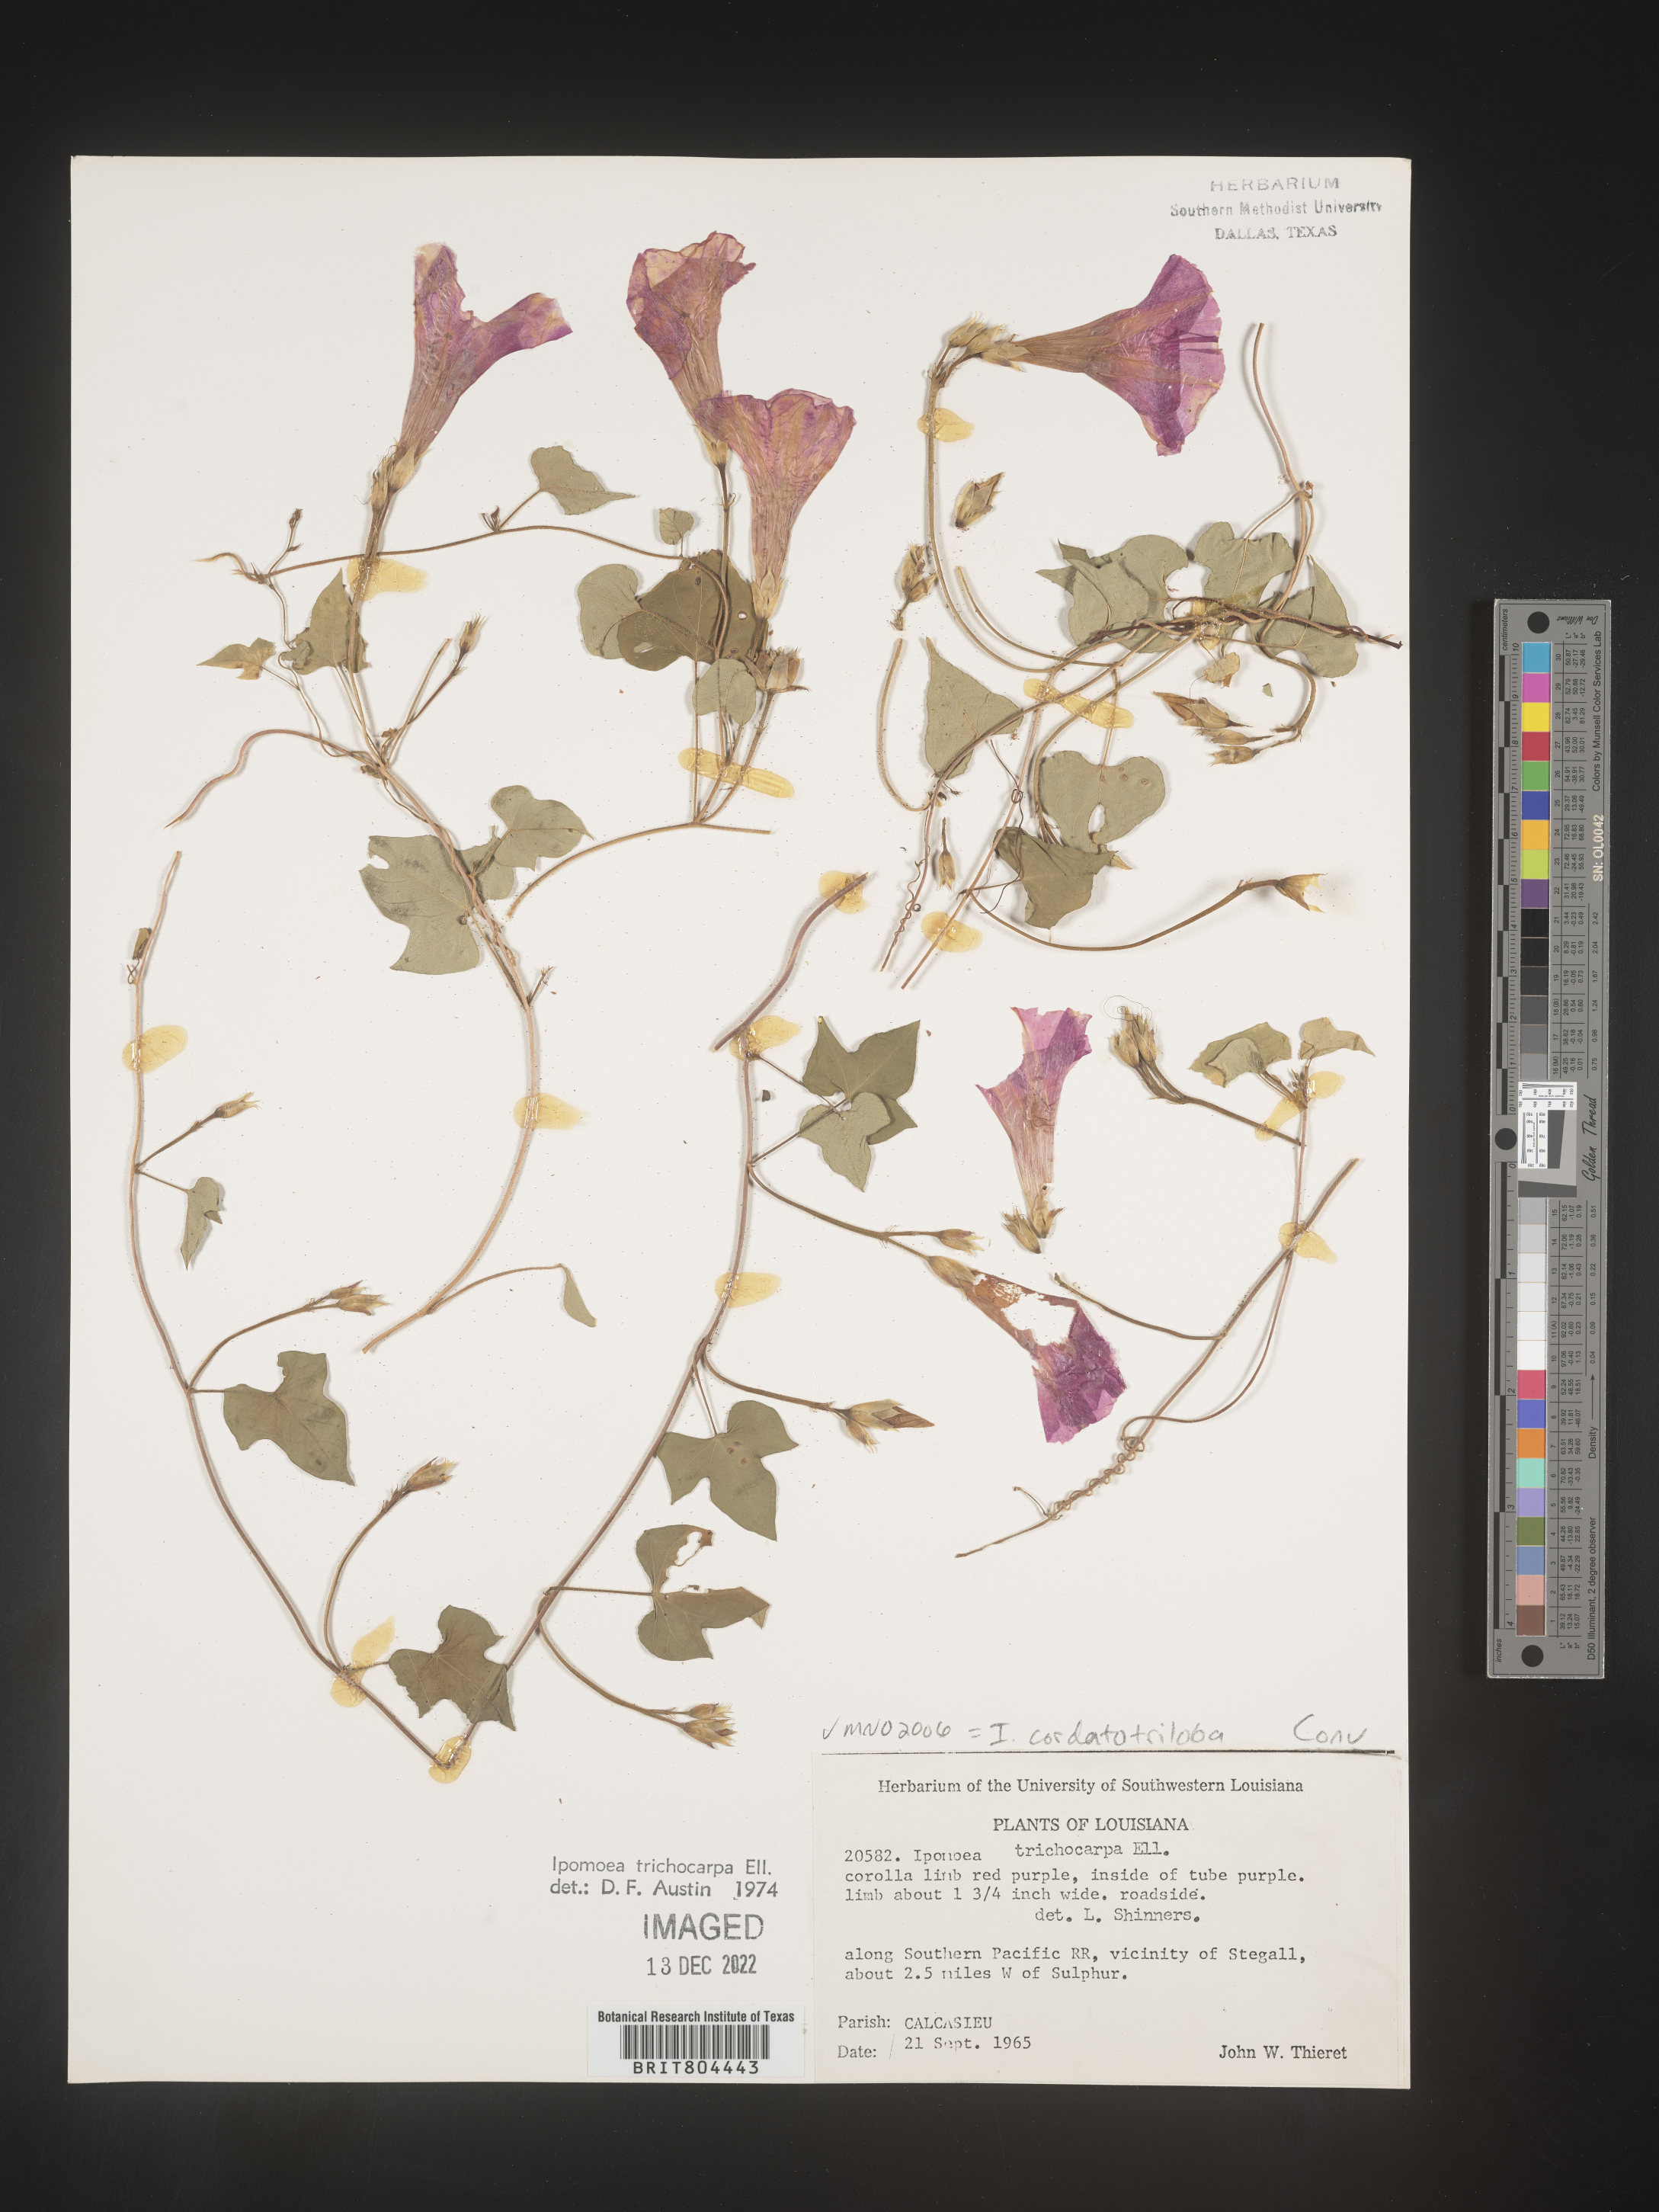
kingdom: Plantae
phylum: Tracheophyta
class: Magnoliopsida
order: Solanales
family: Convolvulaceae
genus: Ipomoea
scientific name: Ipomoea cordatotriloba
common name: Cotton morning glory
